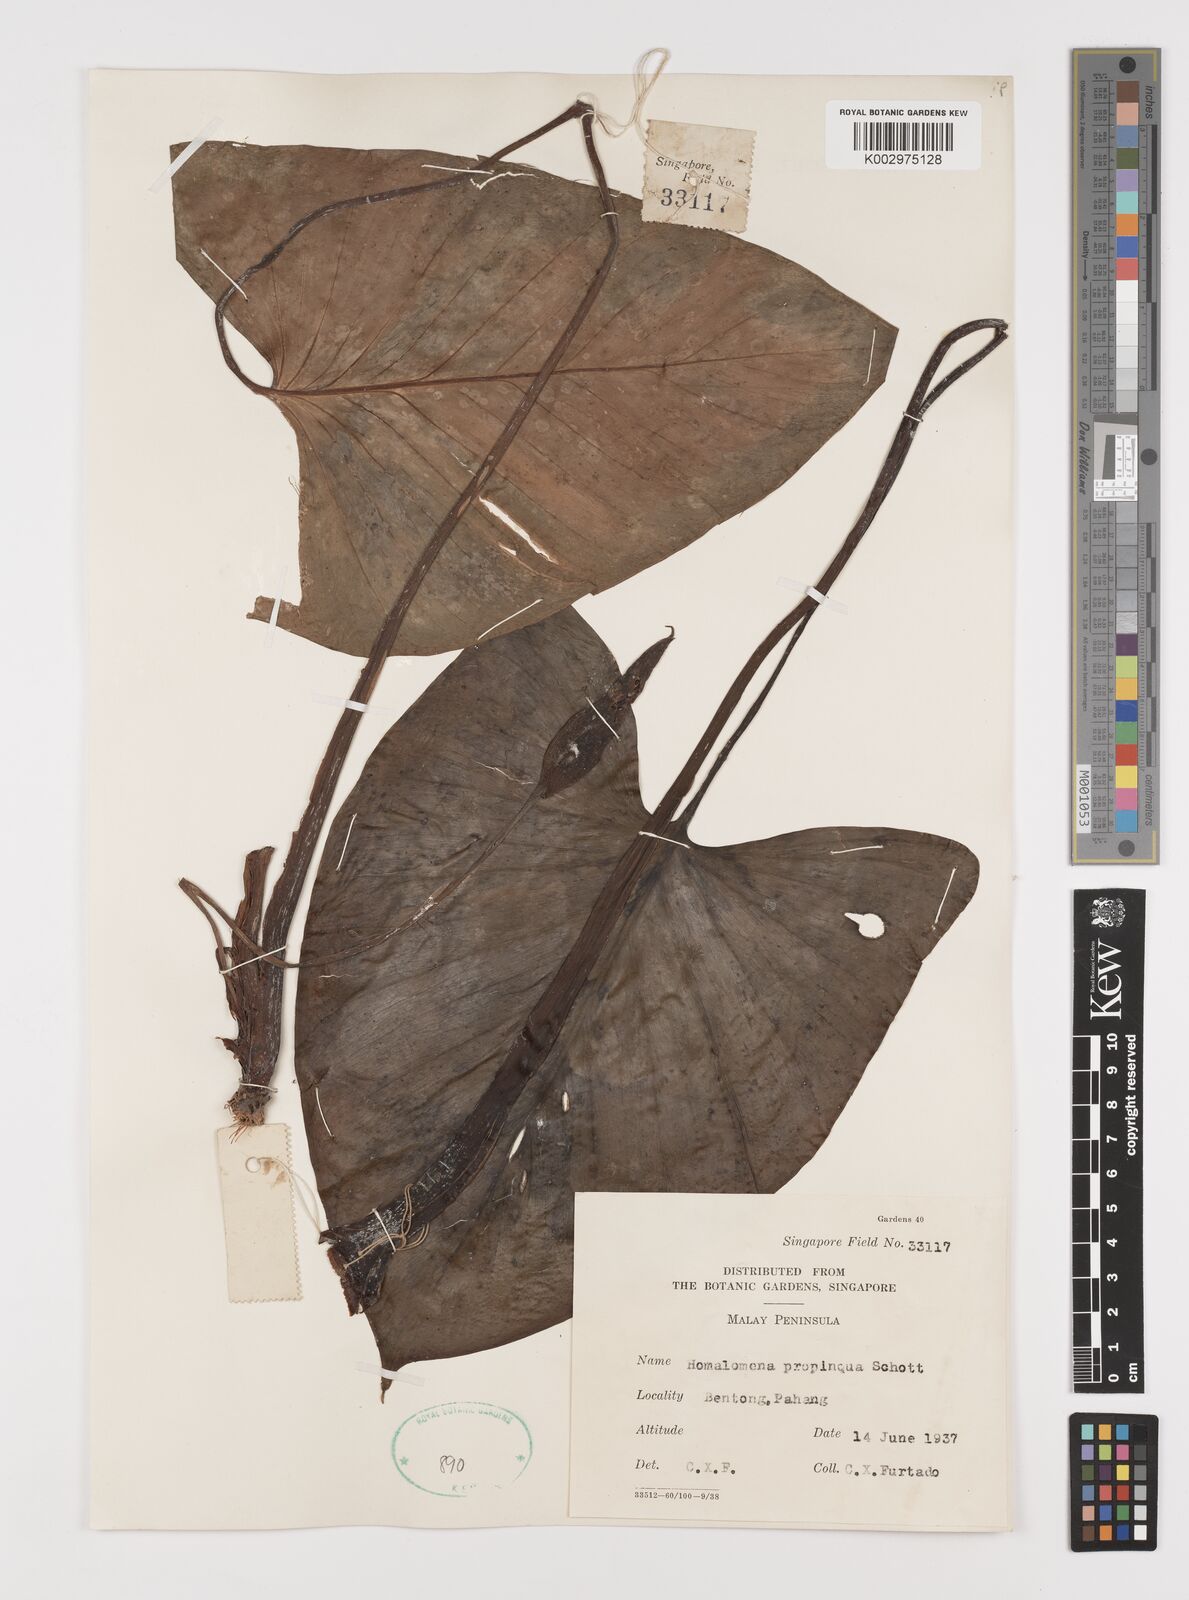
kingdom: Plantae
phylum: Tracheophyta
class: Liliopsida
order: Alismatales
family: Araceae
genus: Homalomena
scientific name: Homalomena humilis
